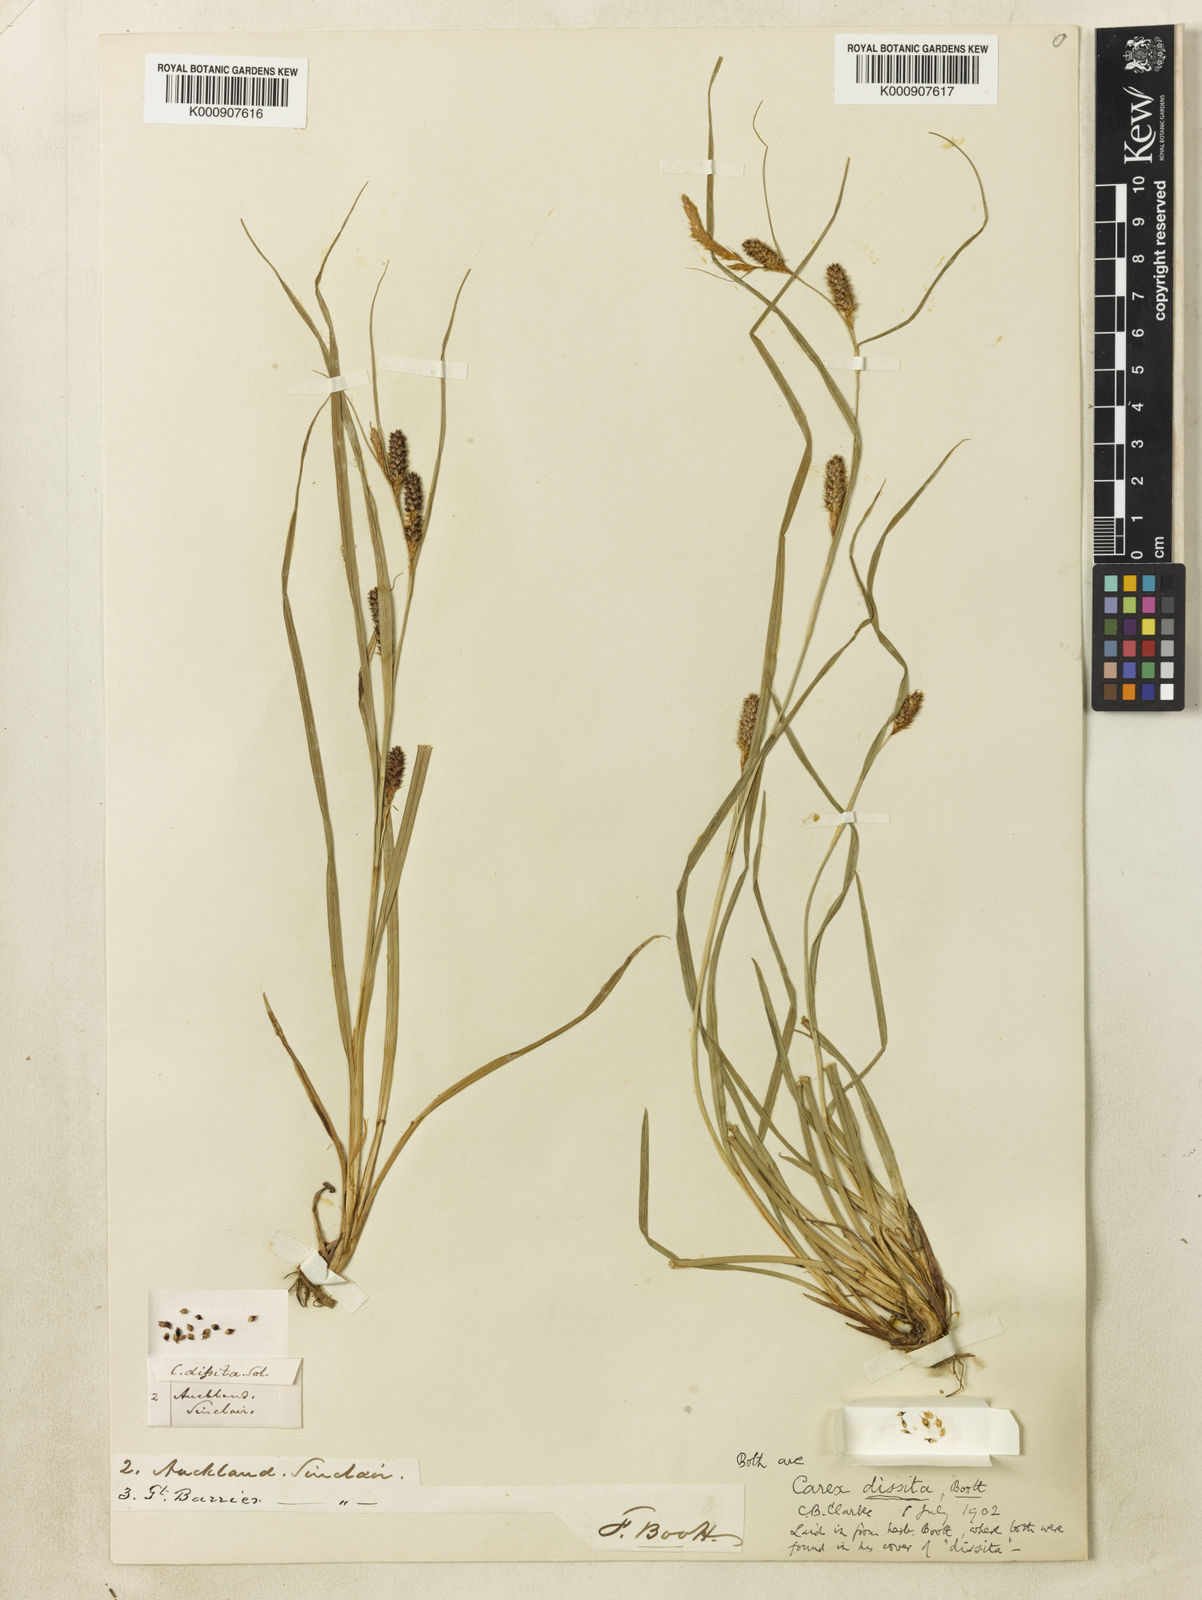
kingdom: Plantae
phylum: Tracheophyta
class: Liliopsida
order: Poales
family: Cyperaceae
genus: Carex
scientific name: Carex
